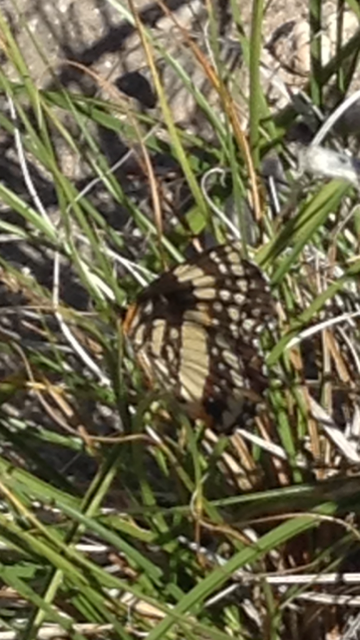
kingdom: Animalia
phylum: Arthropoda
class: Insecta
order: Lepidoptera
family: Nymphalidae
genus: Chlosyne
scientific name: Chlosyne lacinia
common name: Bordered Patch
